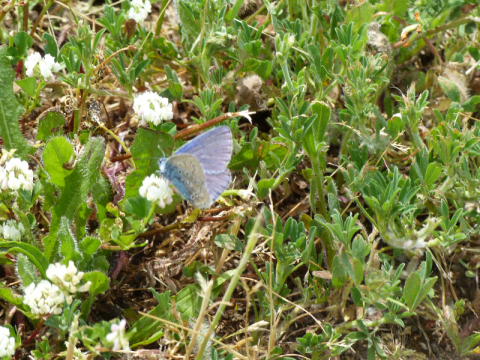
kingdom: Animalia
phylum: Arthropoda
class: Insecta
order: Lepidoptera
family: Lycaenidae
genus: Polyommatus
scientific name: Polyommatus icarus
